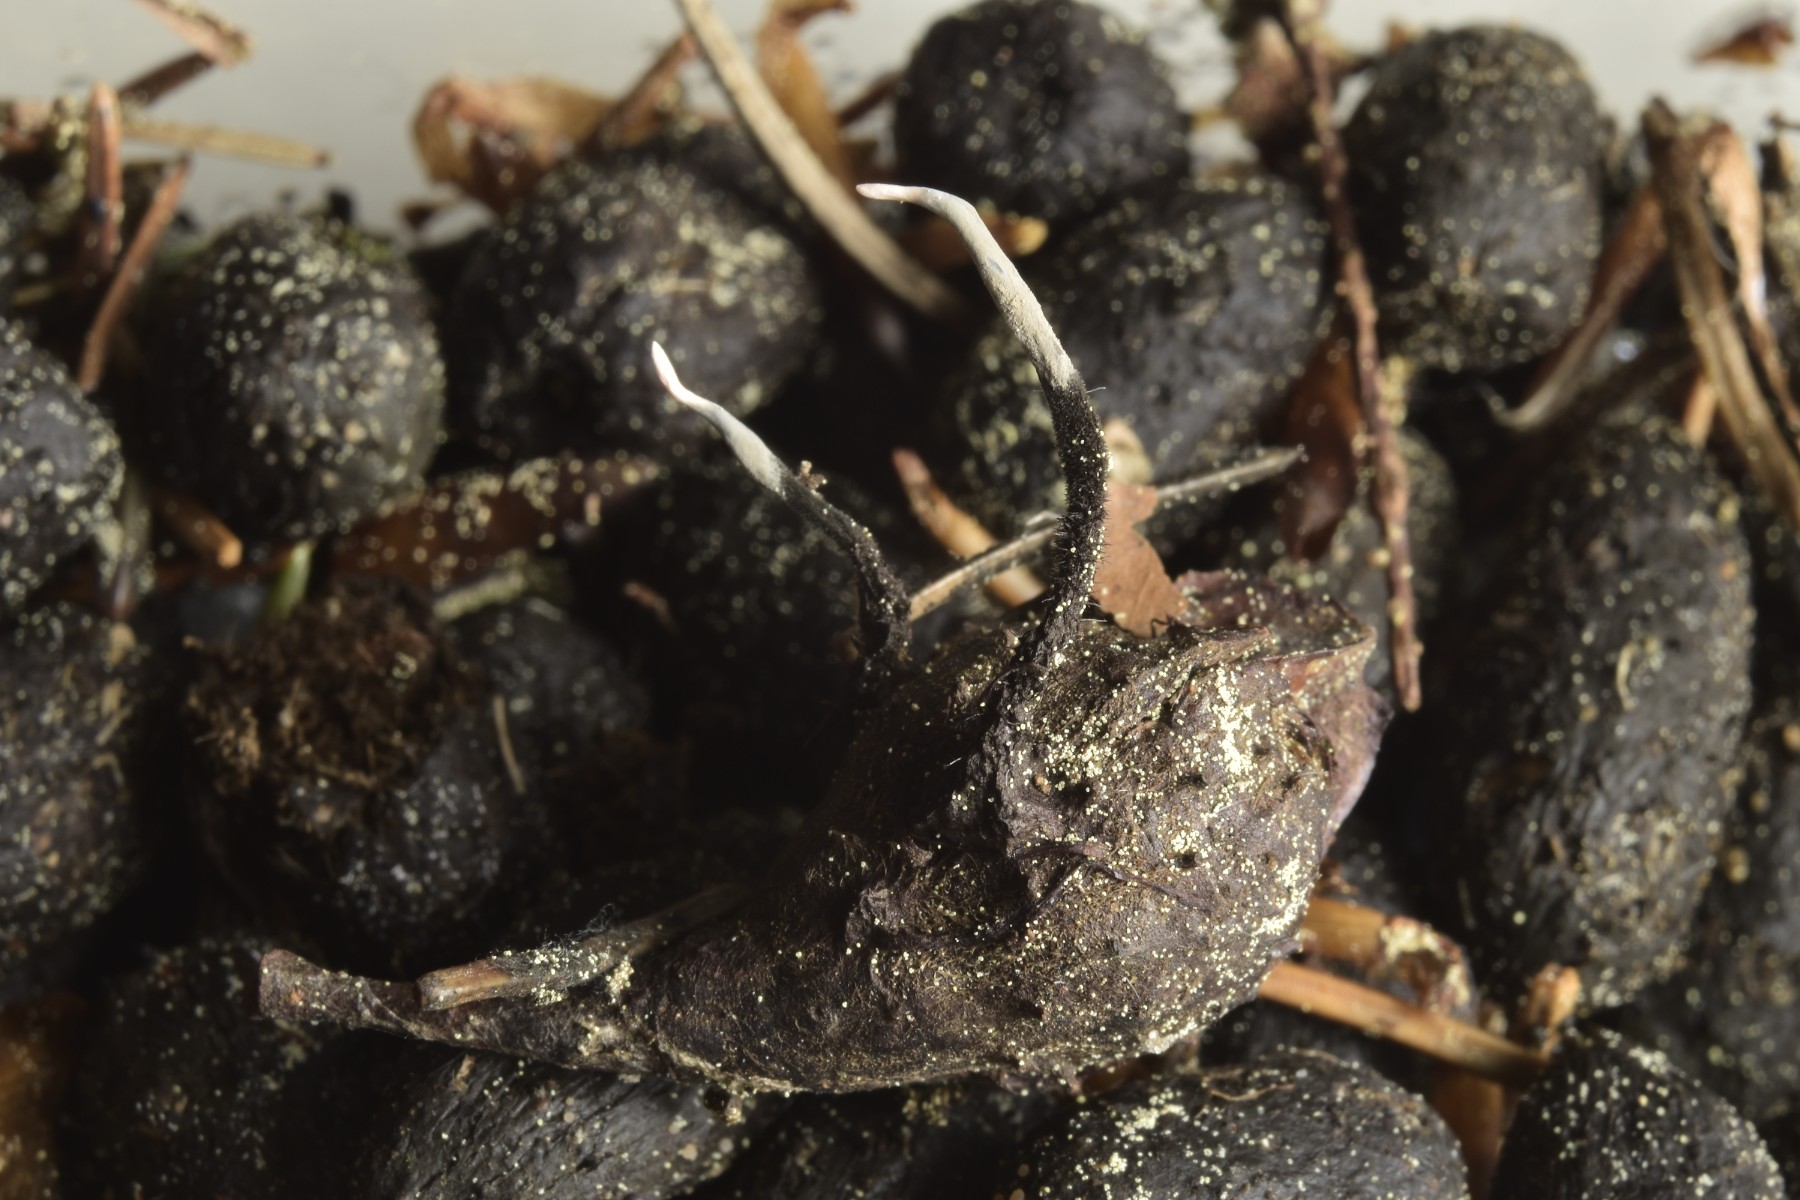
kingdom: Fungi
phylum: Ascomycota
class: Sordariomycetes
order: Xylariales
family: Xylariaceae
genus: Xylaria
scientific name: Xylaria carpophila
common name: bogskål-stødsvamp
